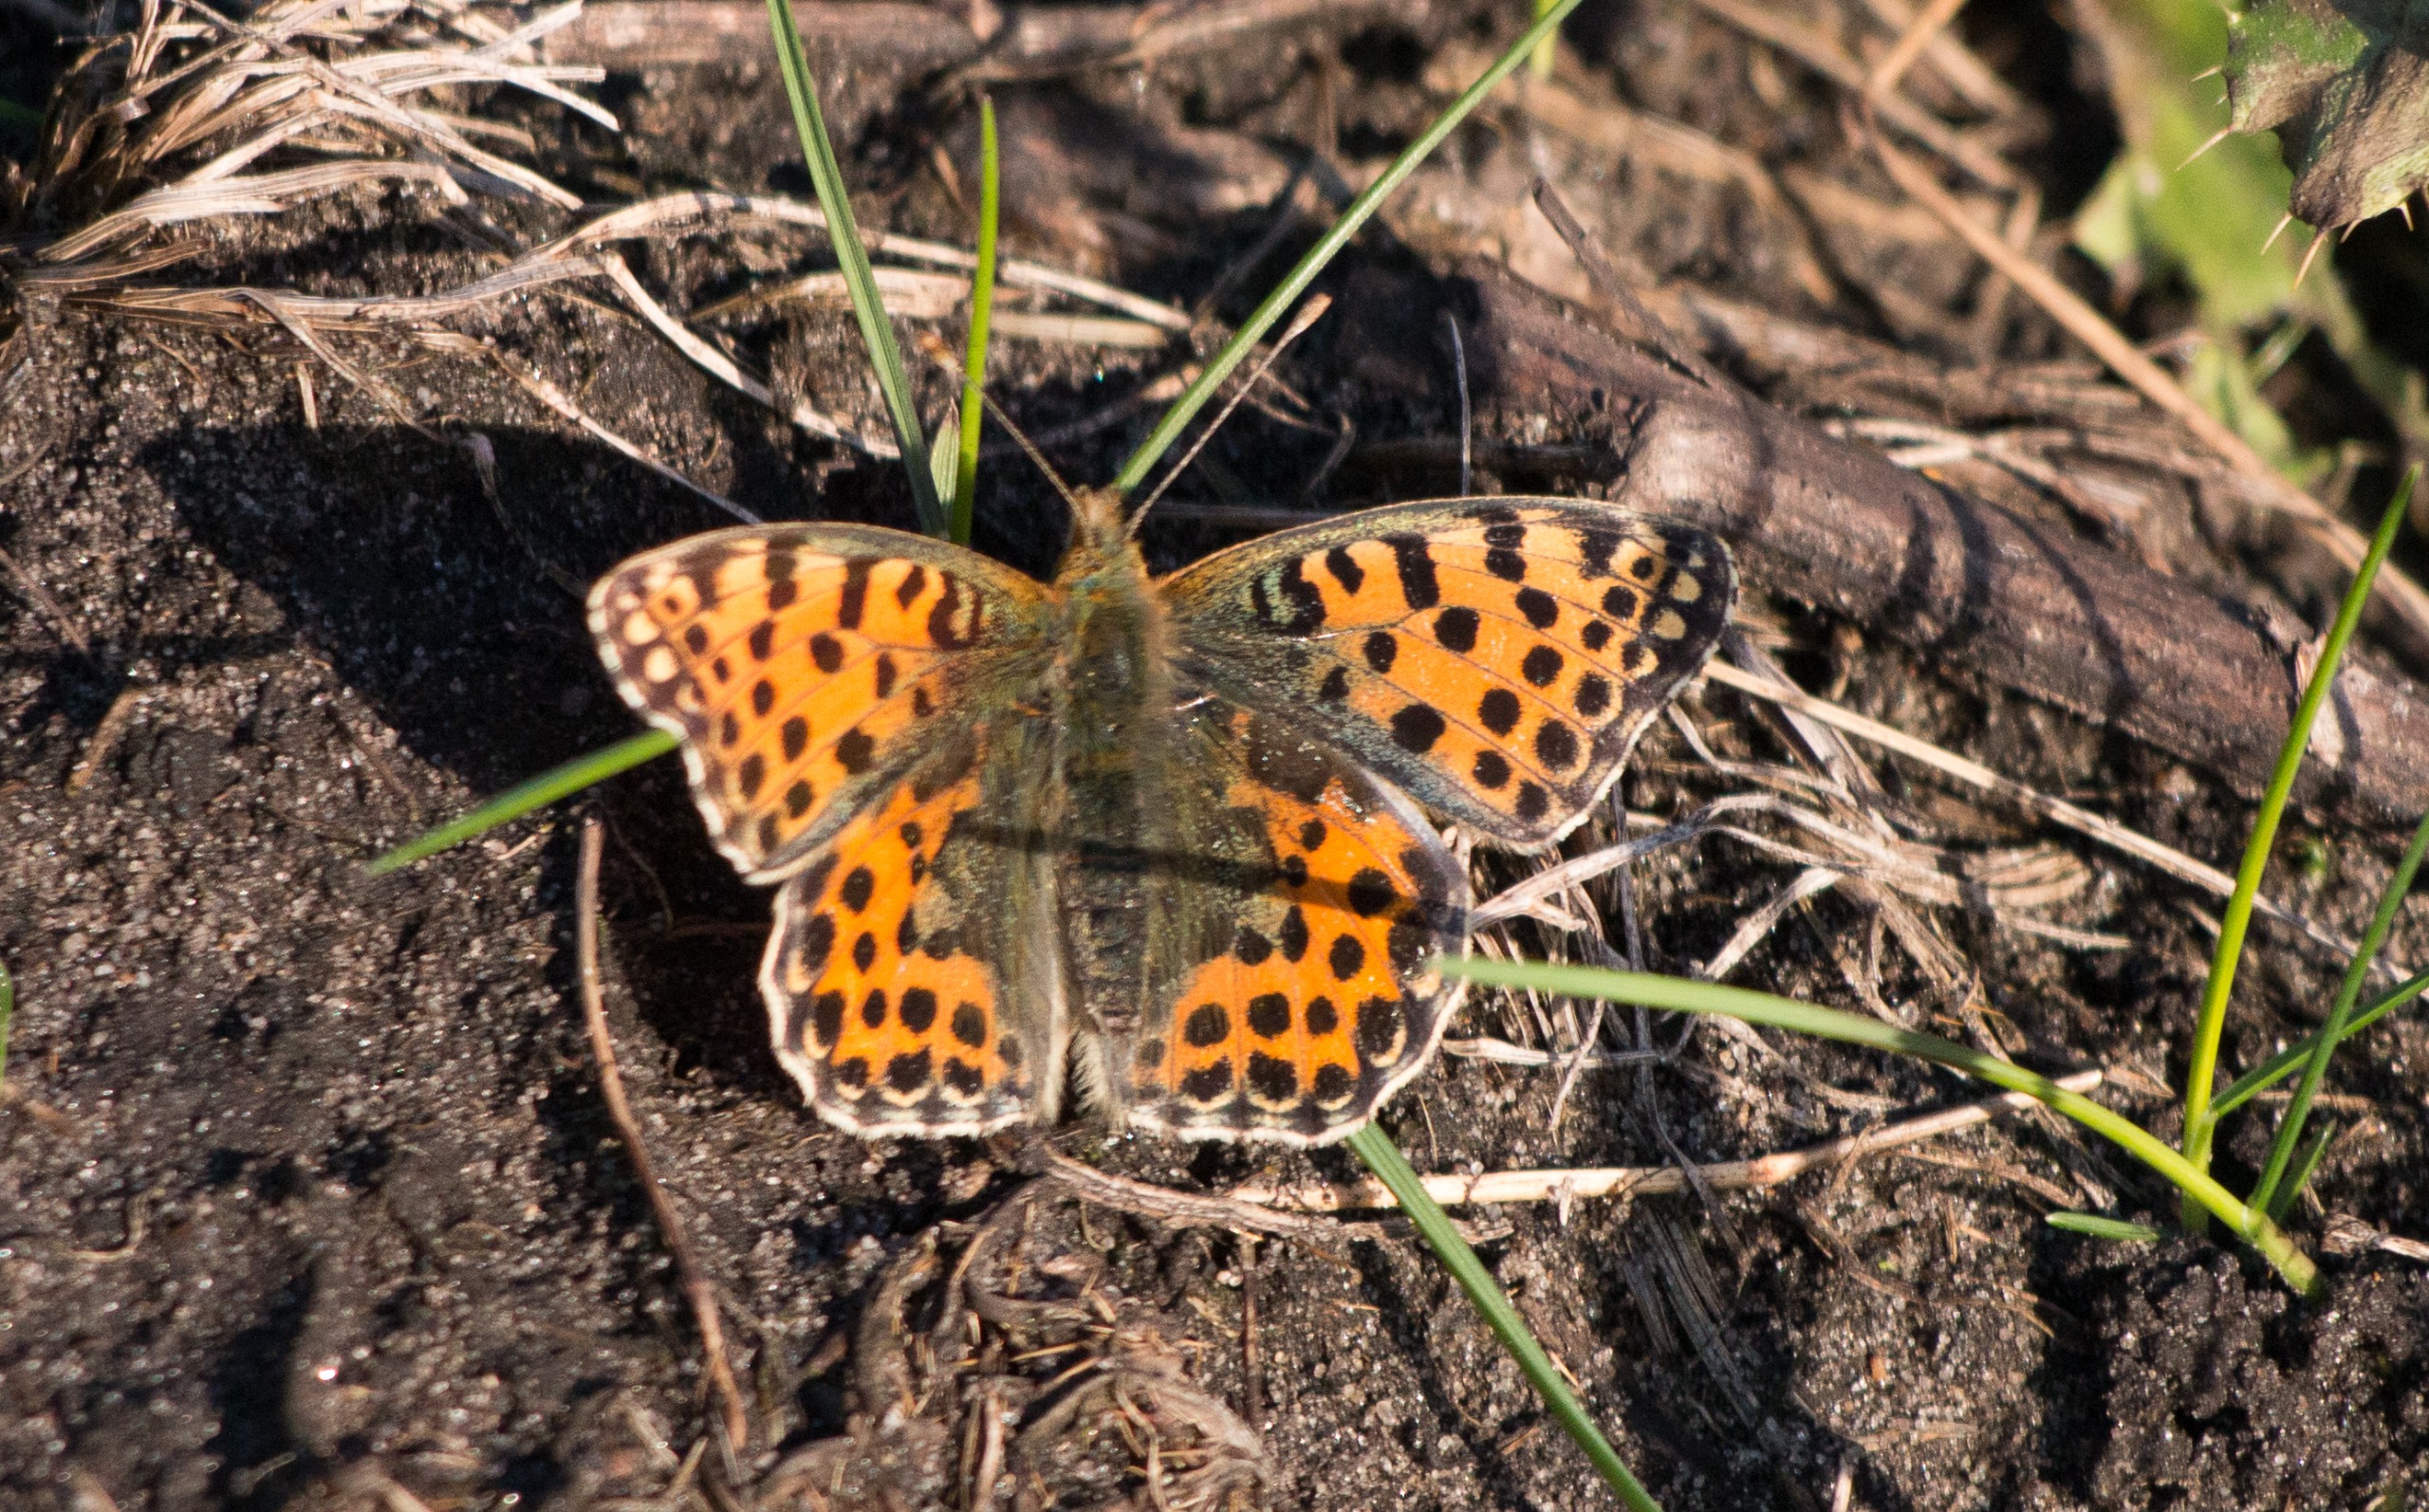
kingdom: Animalia
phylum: Arthropoda
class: Insecta
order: Lepidoptera
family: Nymphalidae
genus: Issoria
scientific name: Issoria lathonia
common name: Storplettet perlemorsommerfugl
